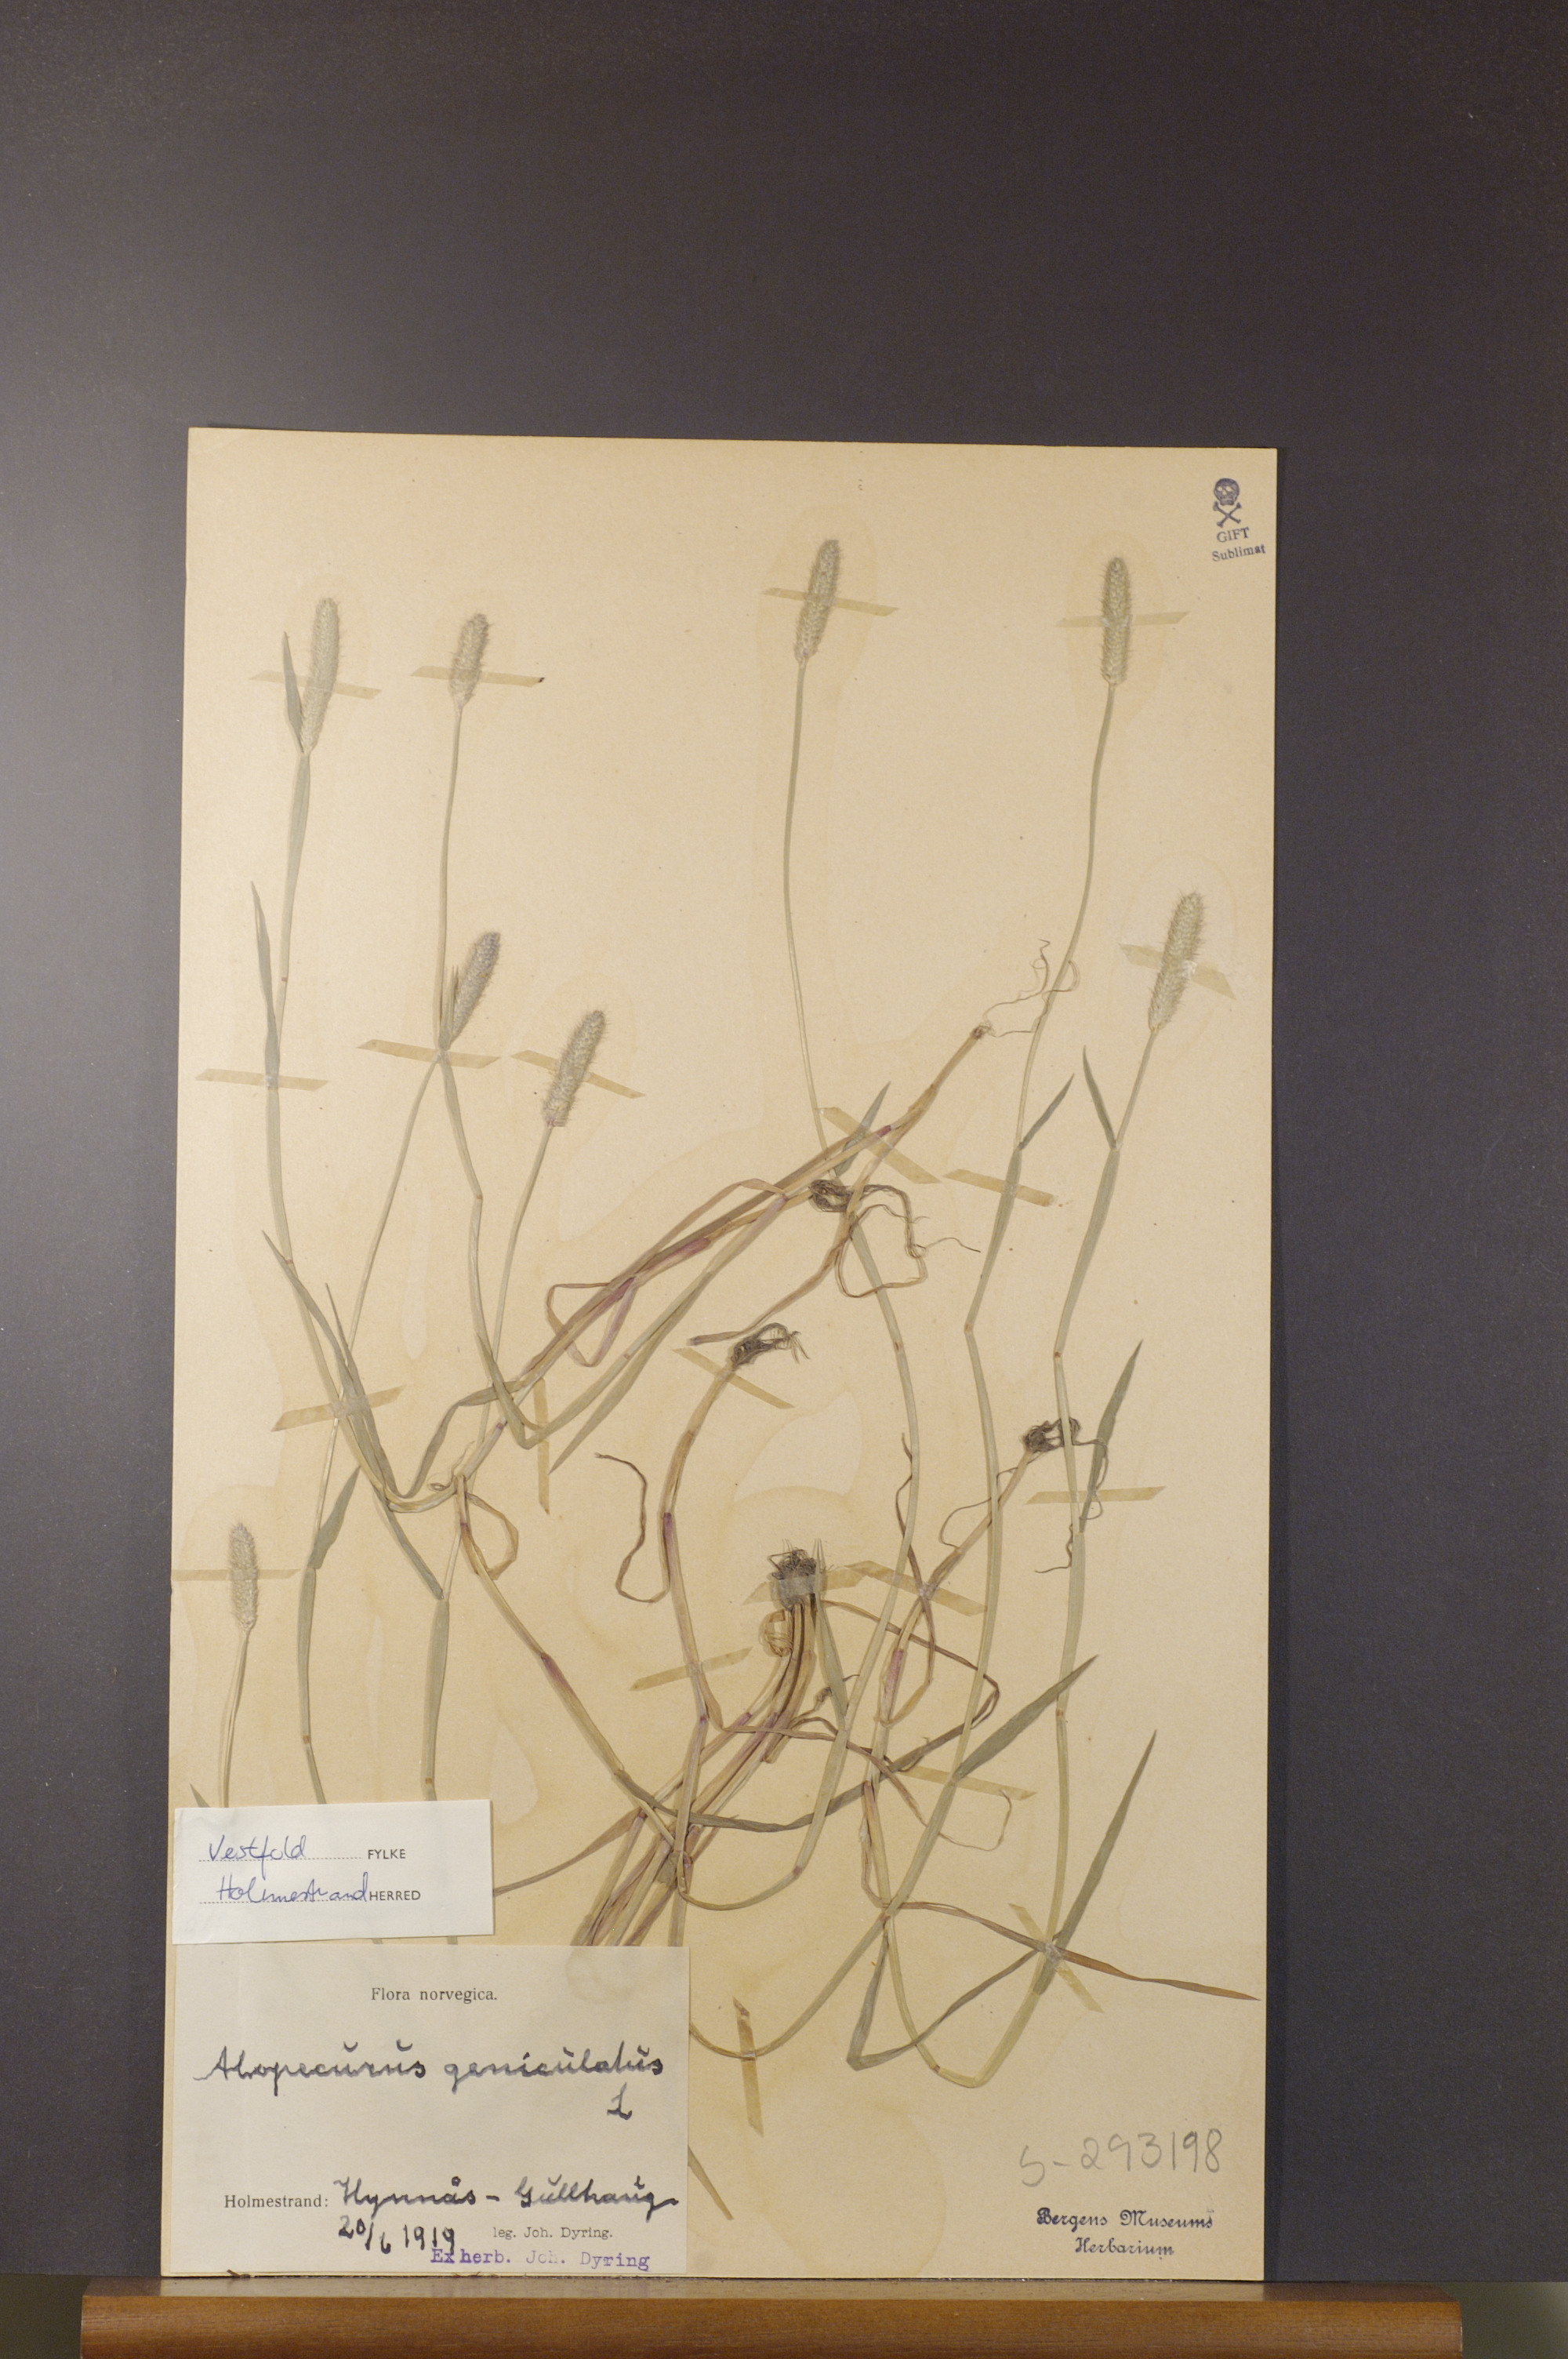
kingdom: Plantae
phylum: Tracheophyta
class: Liliopsida
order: Poales
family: Poaceae
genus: Alopecurus
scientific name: Alopecurus geniculatus
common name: Water foxtail
